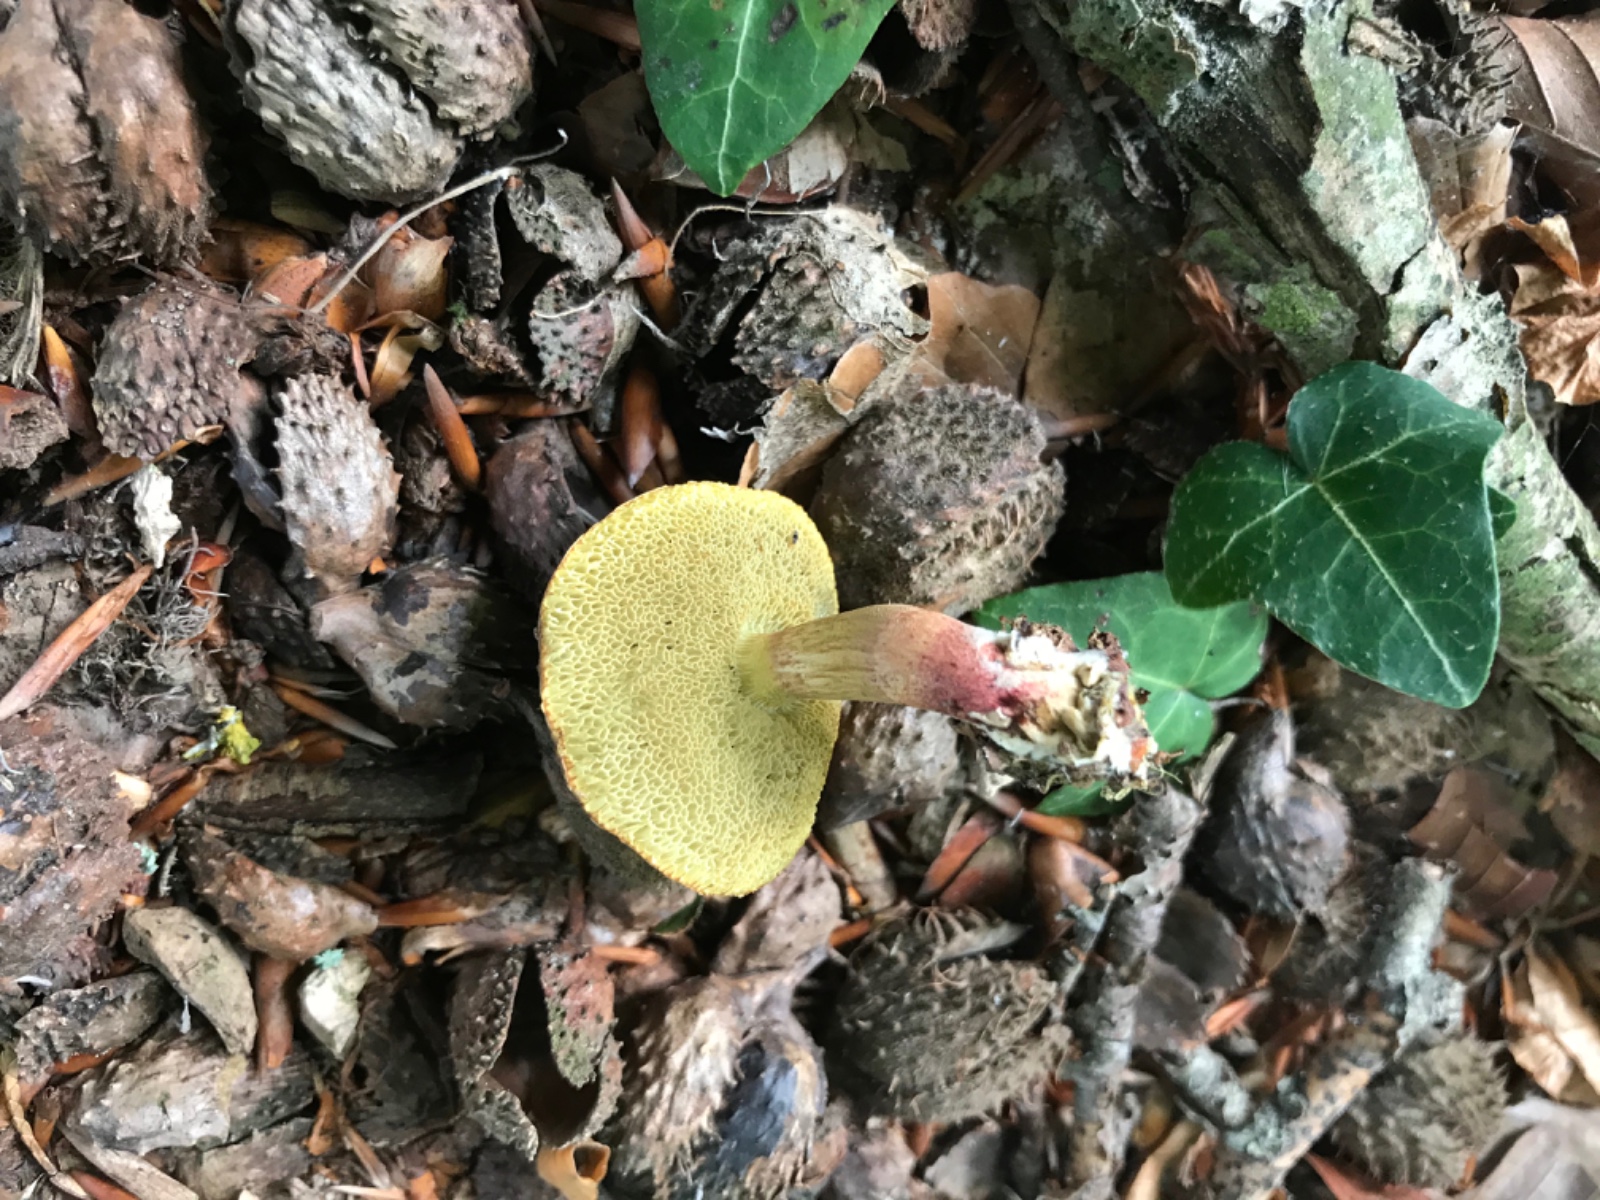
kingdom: Fungi
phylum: Basidiomycota
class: Agaricomycetes
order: Boletales
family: Boletaceae
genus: Xerocomellus
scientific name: Xerocomellus cisalpinus
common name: finsprukken rørhat
